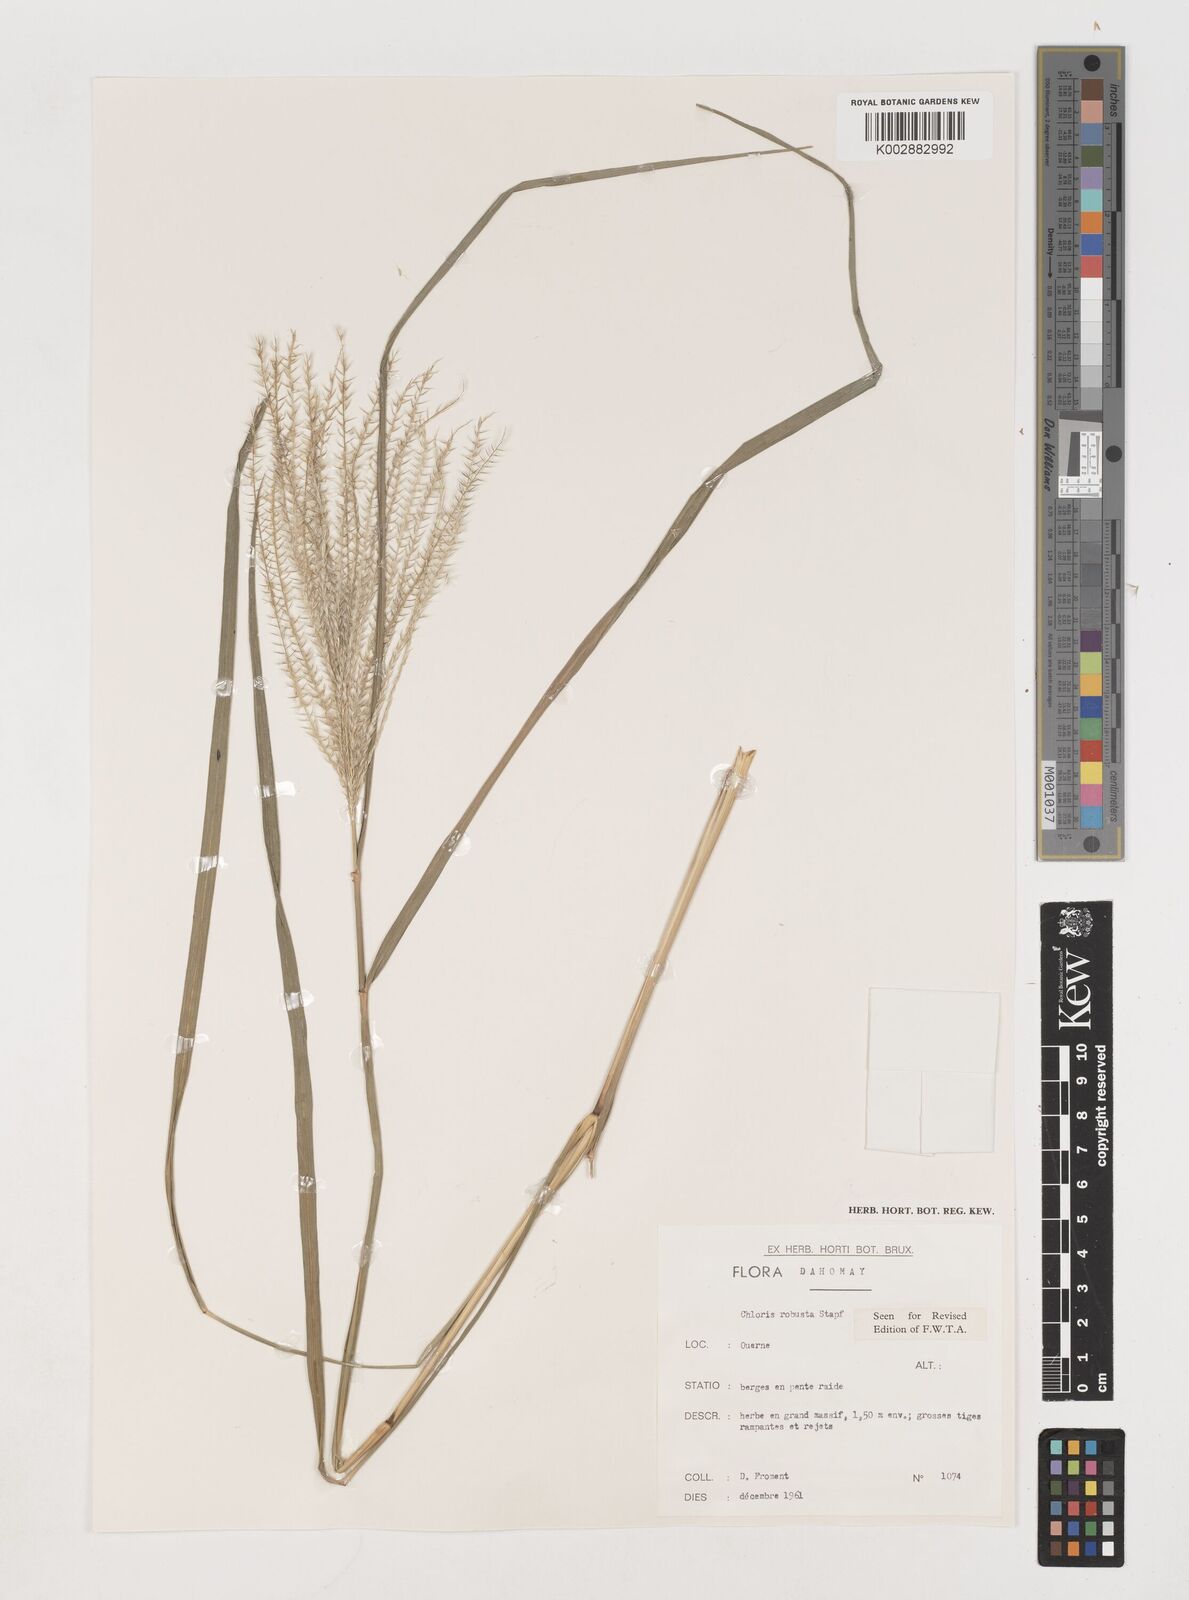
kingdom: Plantae
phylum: Tracheophyta
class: Liliopsida
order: Poales
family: Poaceae
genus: Chloris
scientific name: Chloris robusta
